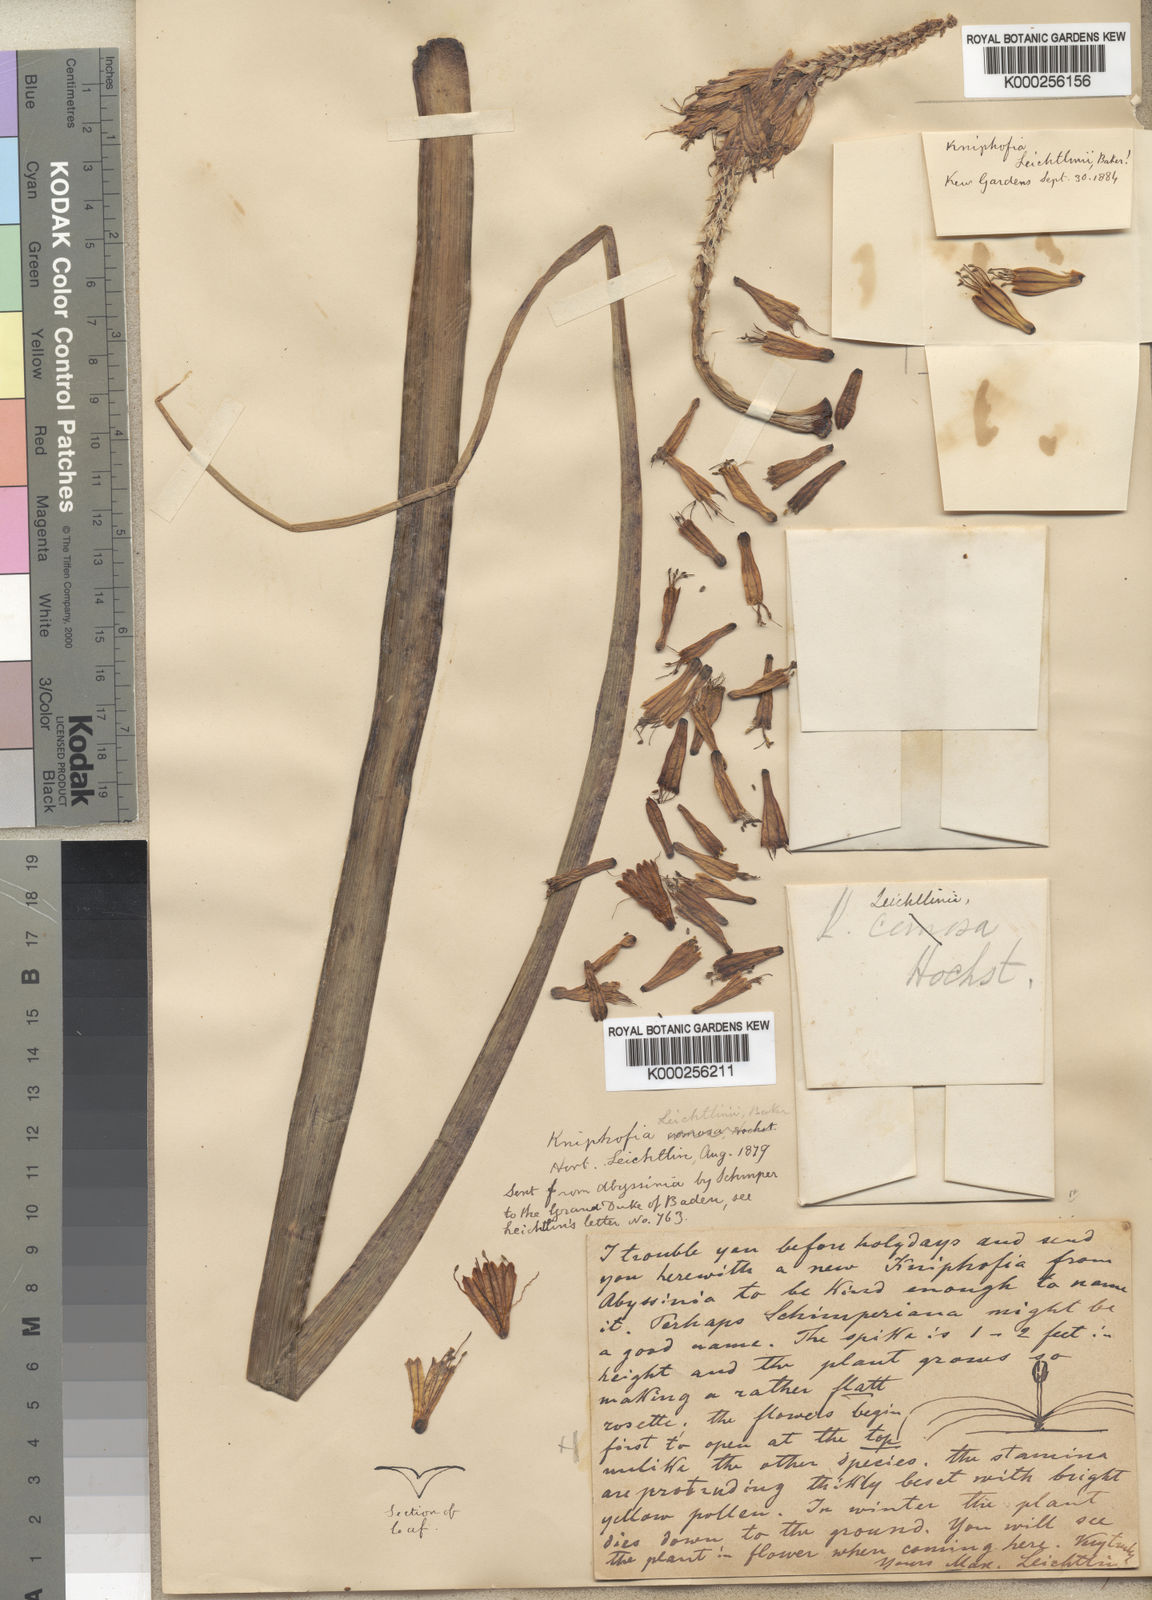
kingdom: Plantae
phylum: Tracheophyta
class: Liliopsida
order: Asparagales
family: Asphodelaceae
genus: Kniphofia
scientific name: Kniphofia pumila
